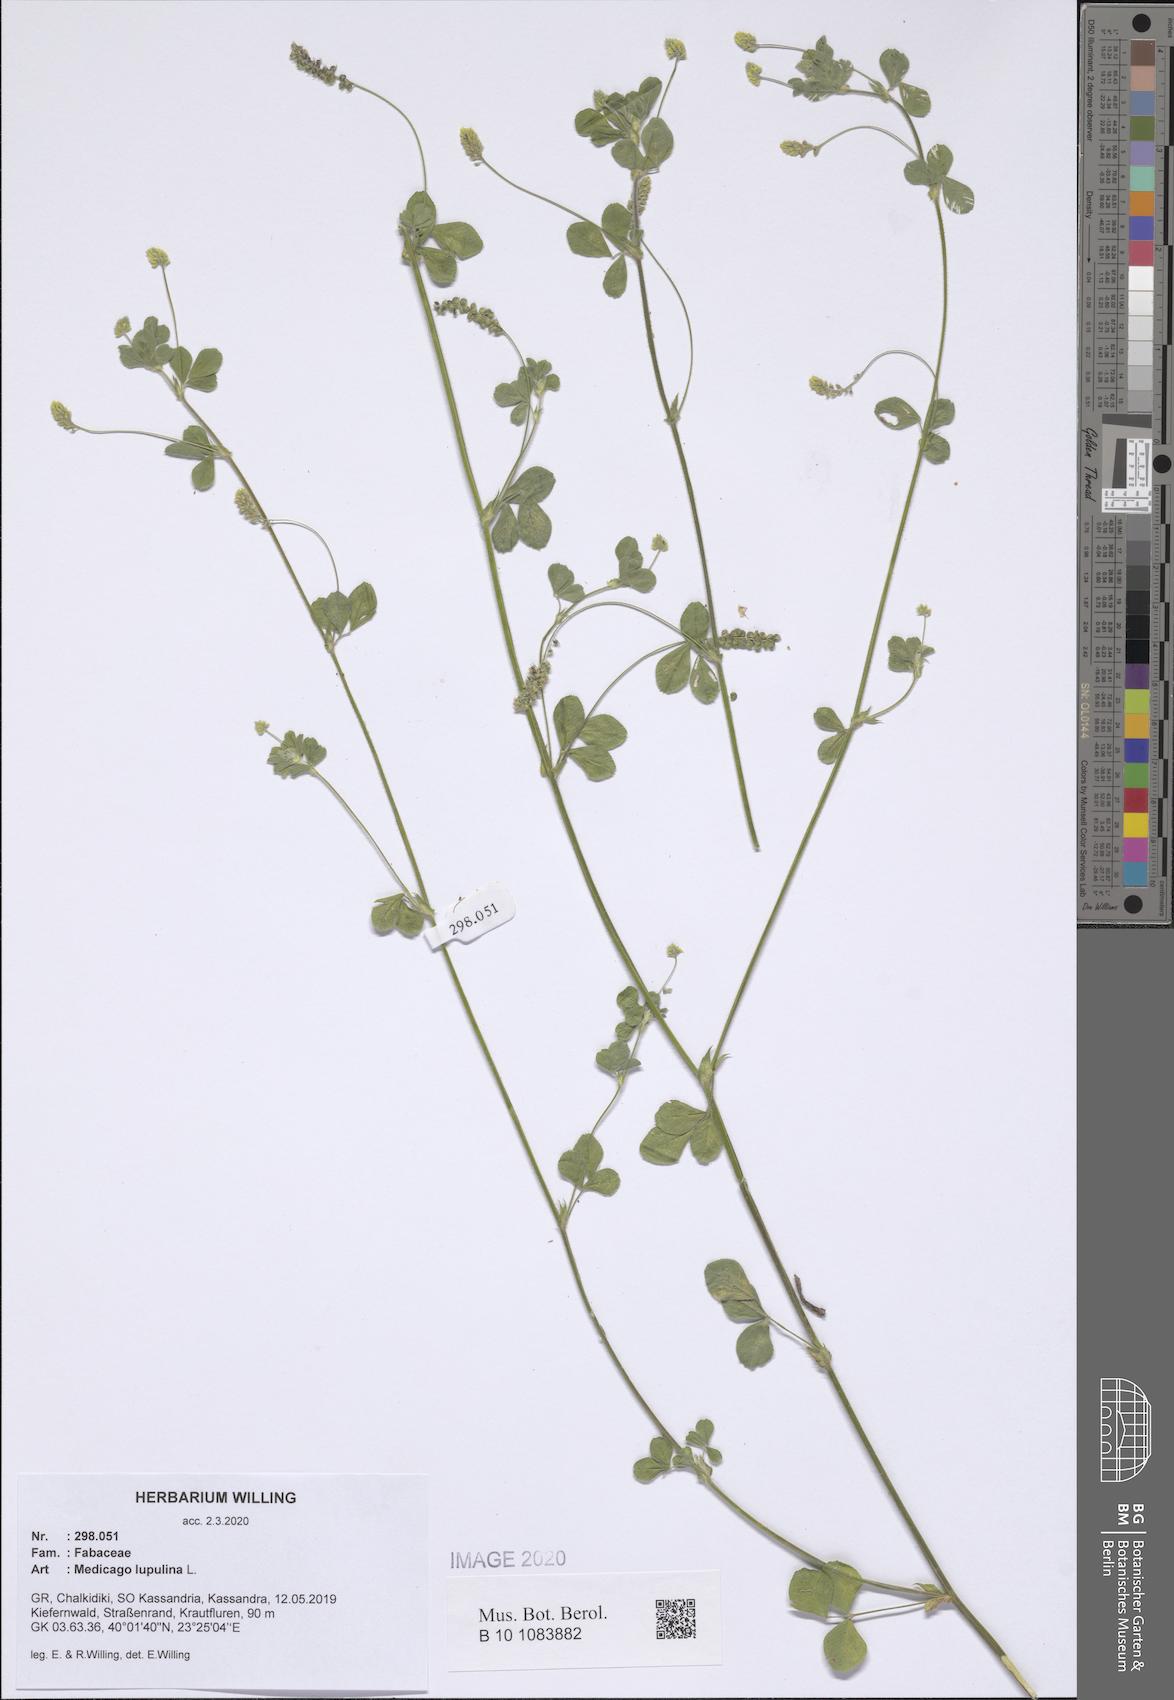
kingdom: Plantae
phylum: Tracheophyta
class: Magnoliopsida
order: Fabales
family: Fabaceae
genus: Medicago
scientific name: Medicago lupulina
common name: Black medick
